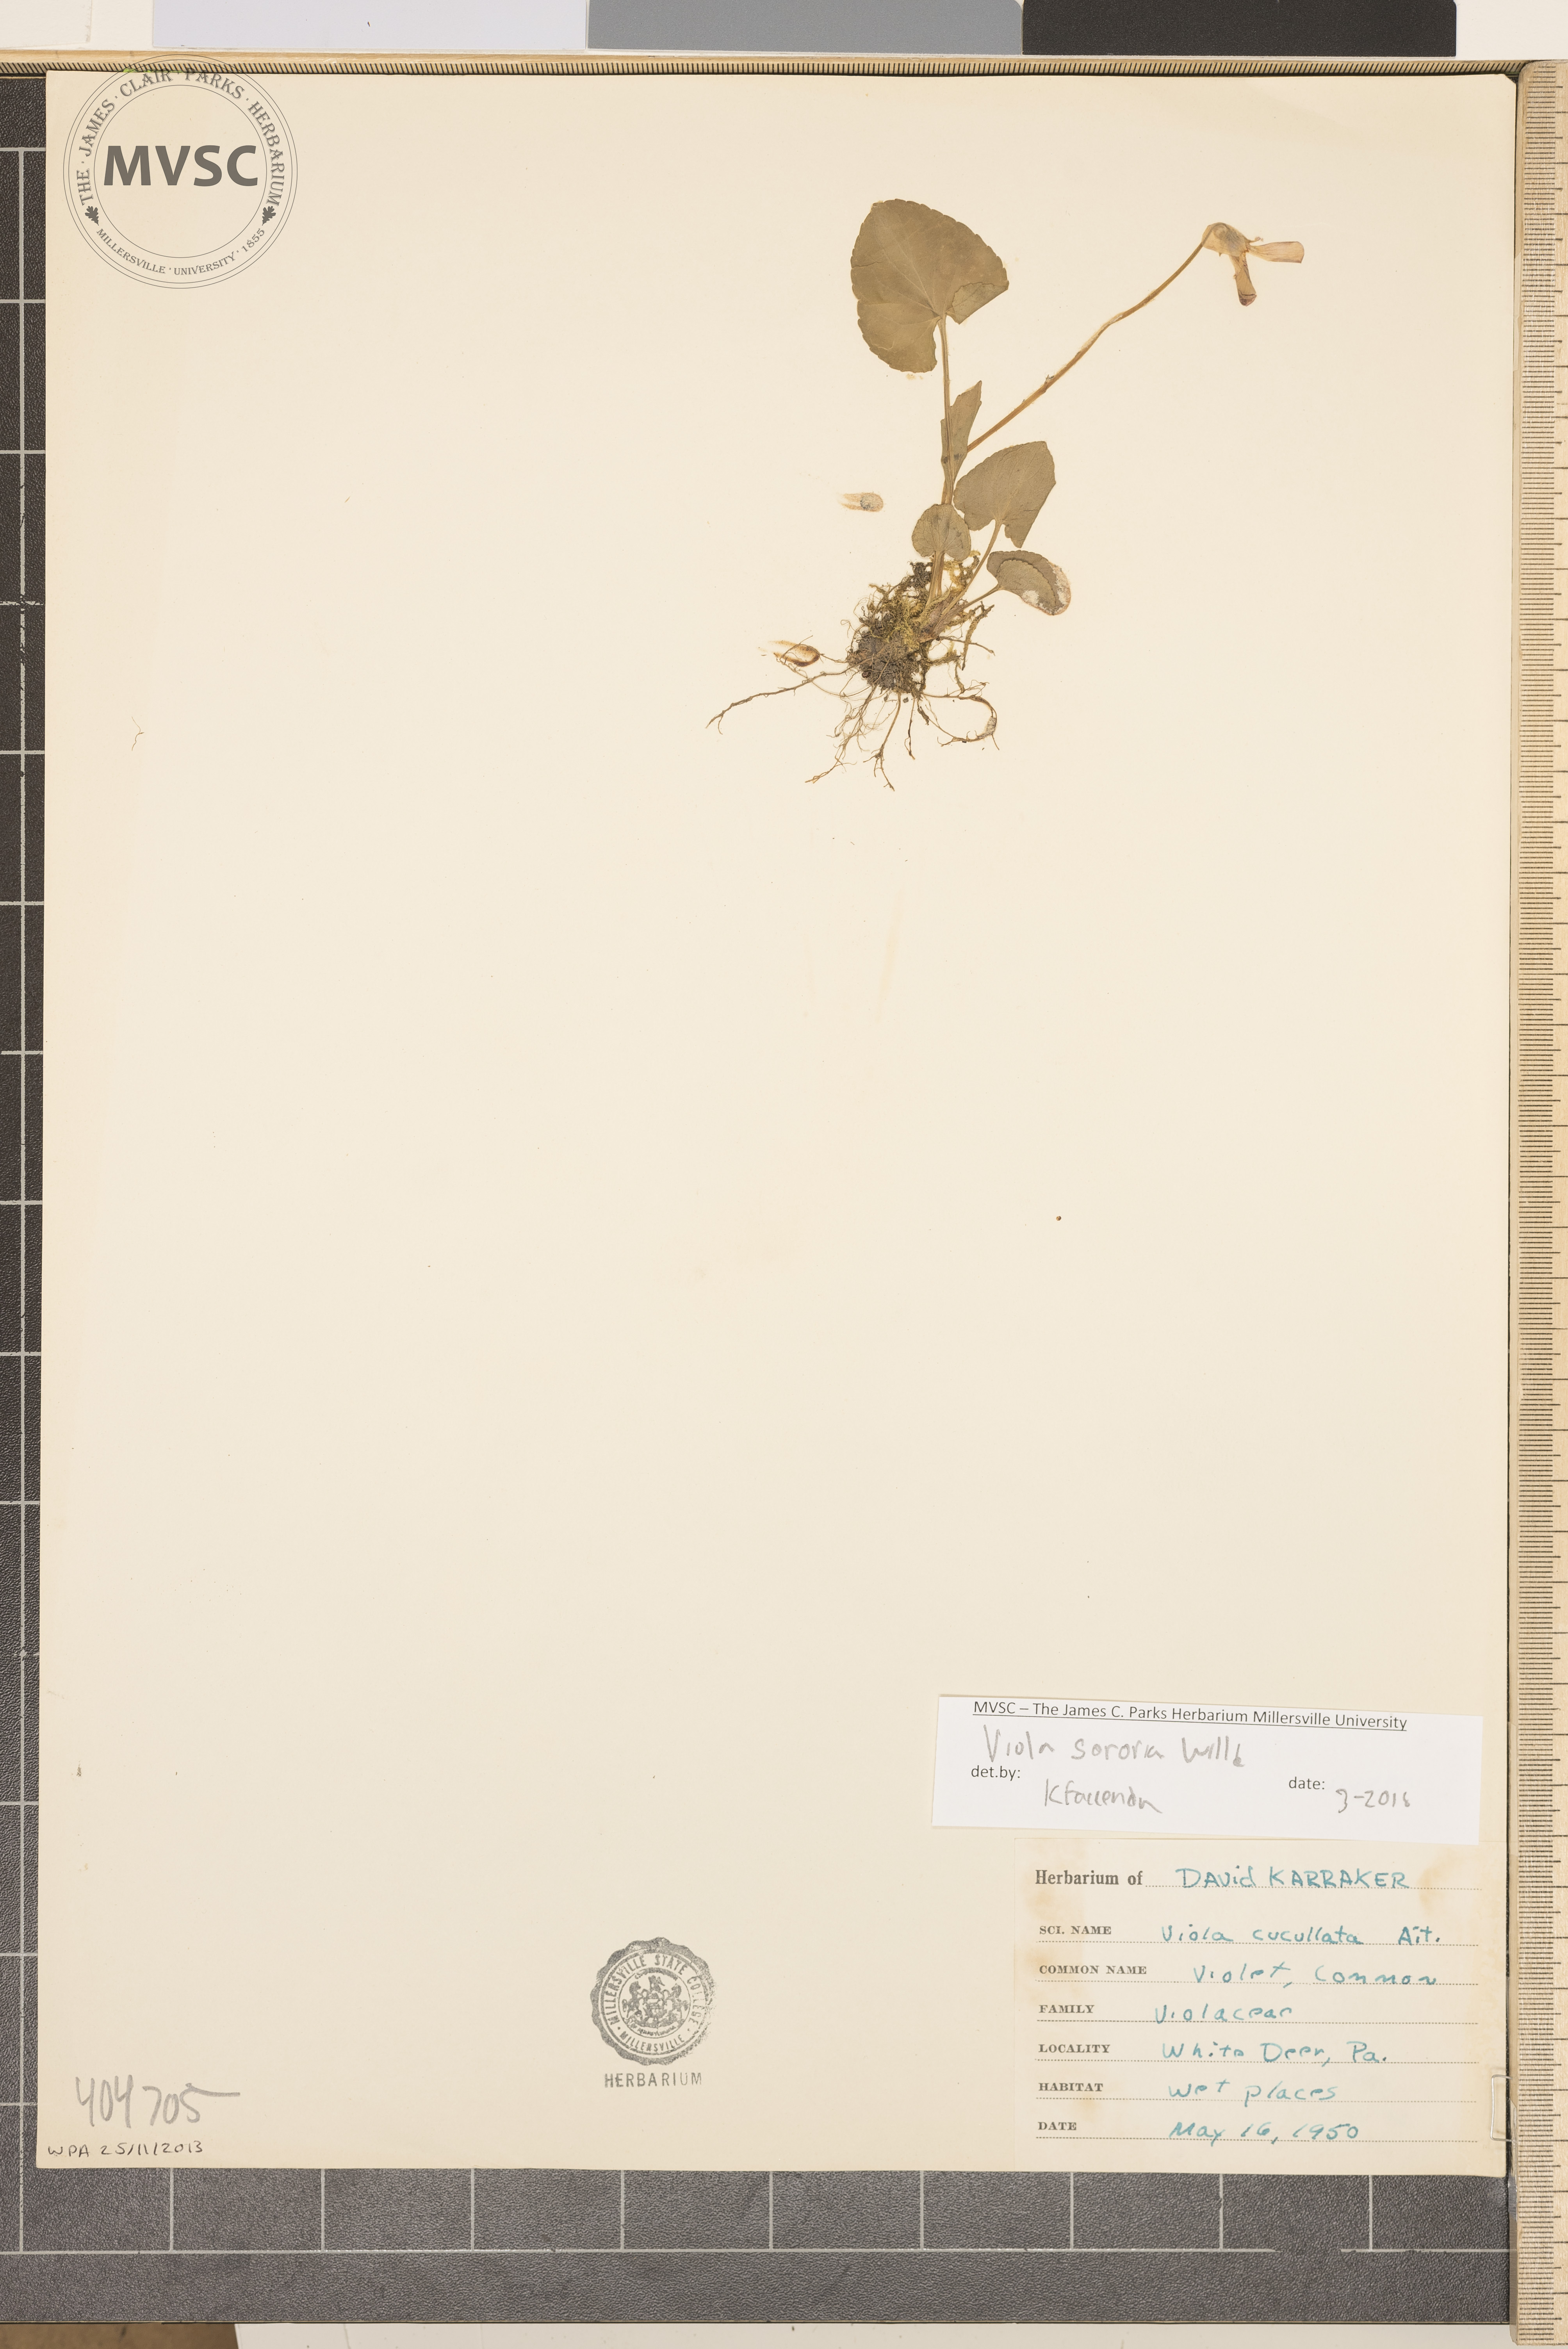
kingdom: Plantae
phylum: Tracheophyta
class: Magnoliopsida
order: Malpighiales
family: Violaceae
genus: Viola
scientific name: Viola sororia
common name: Dooryard violet
